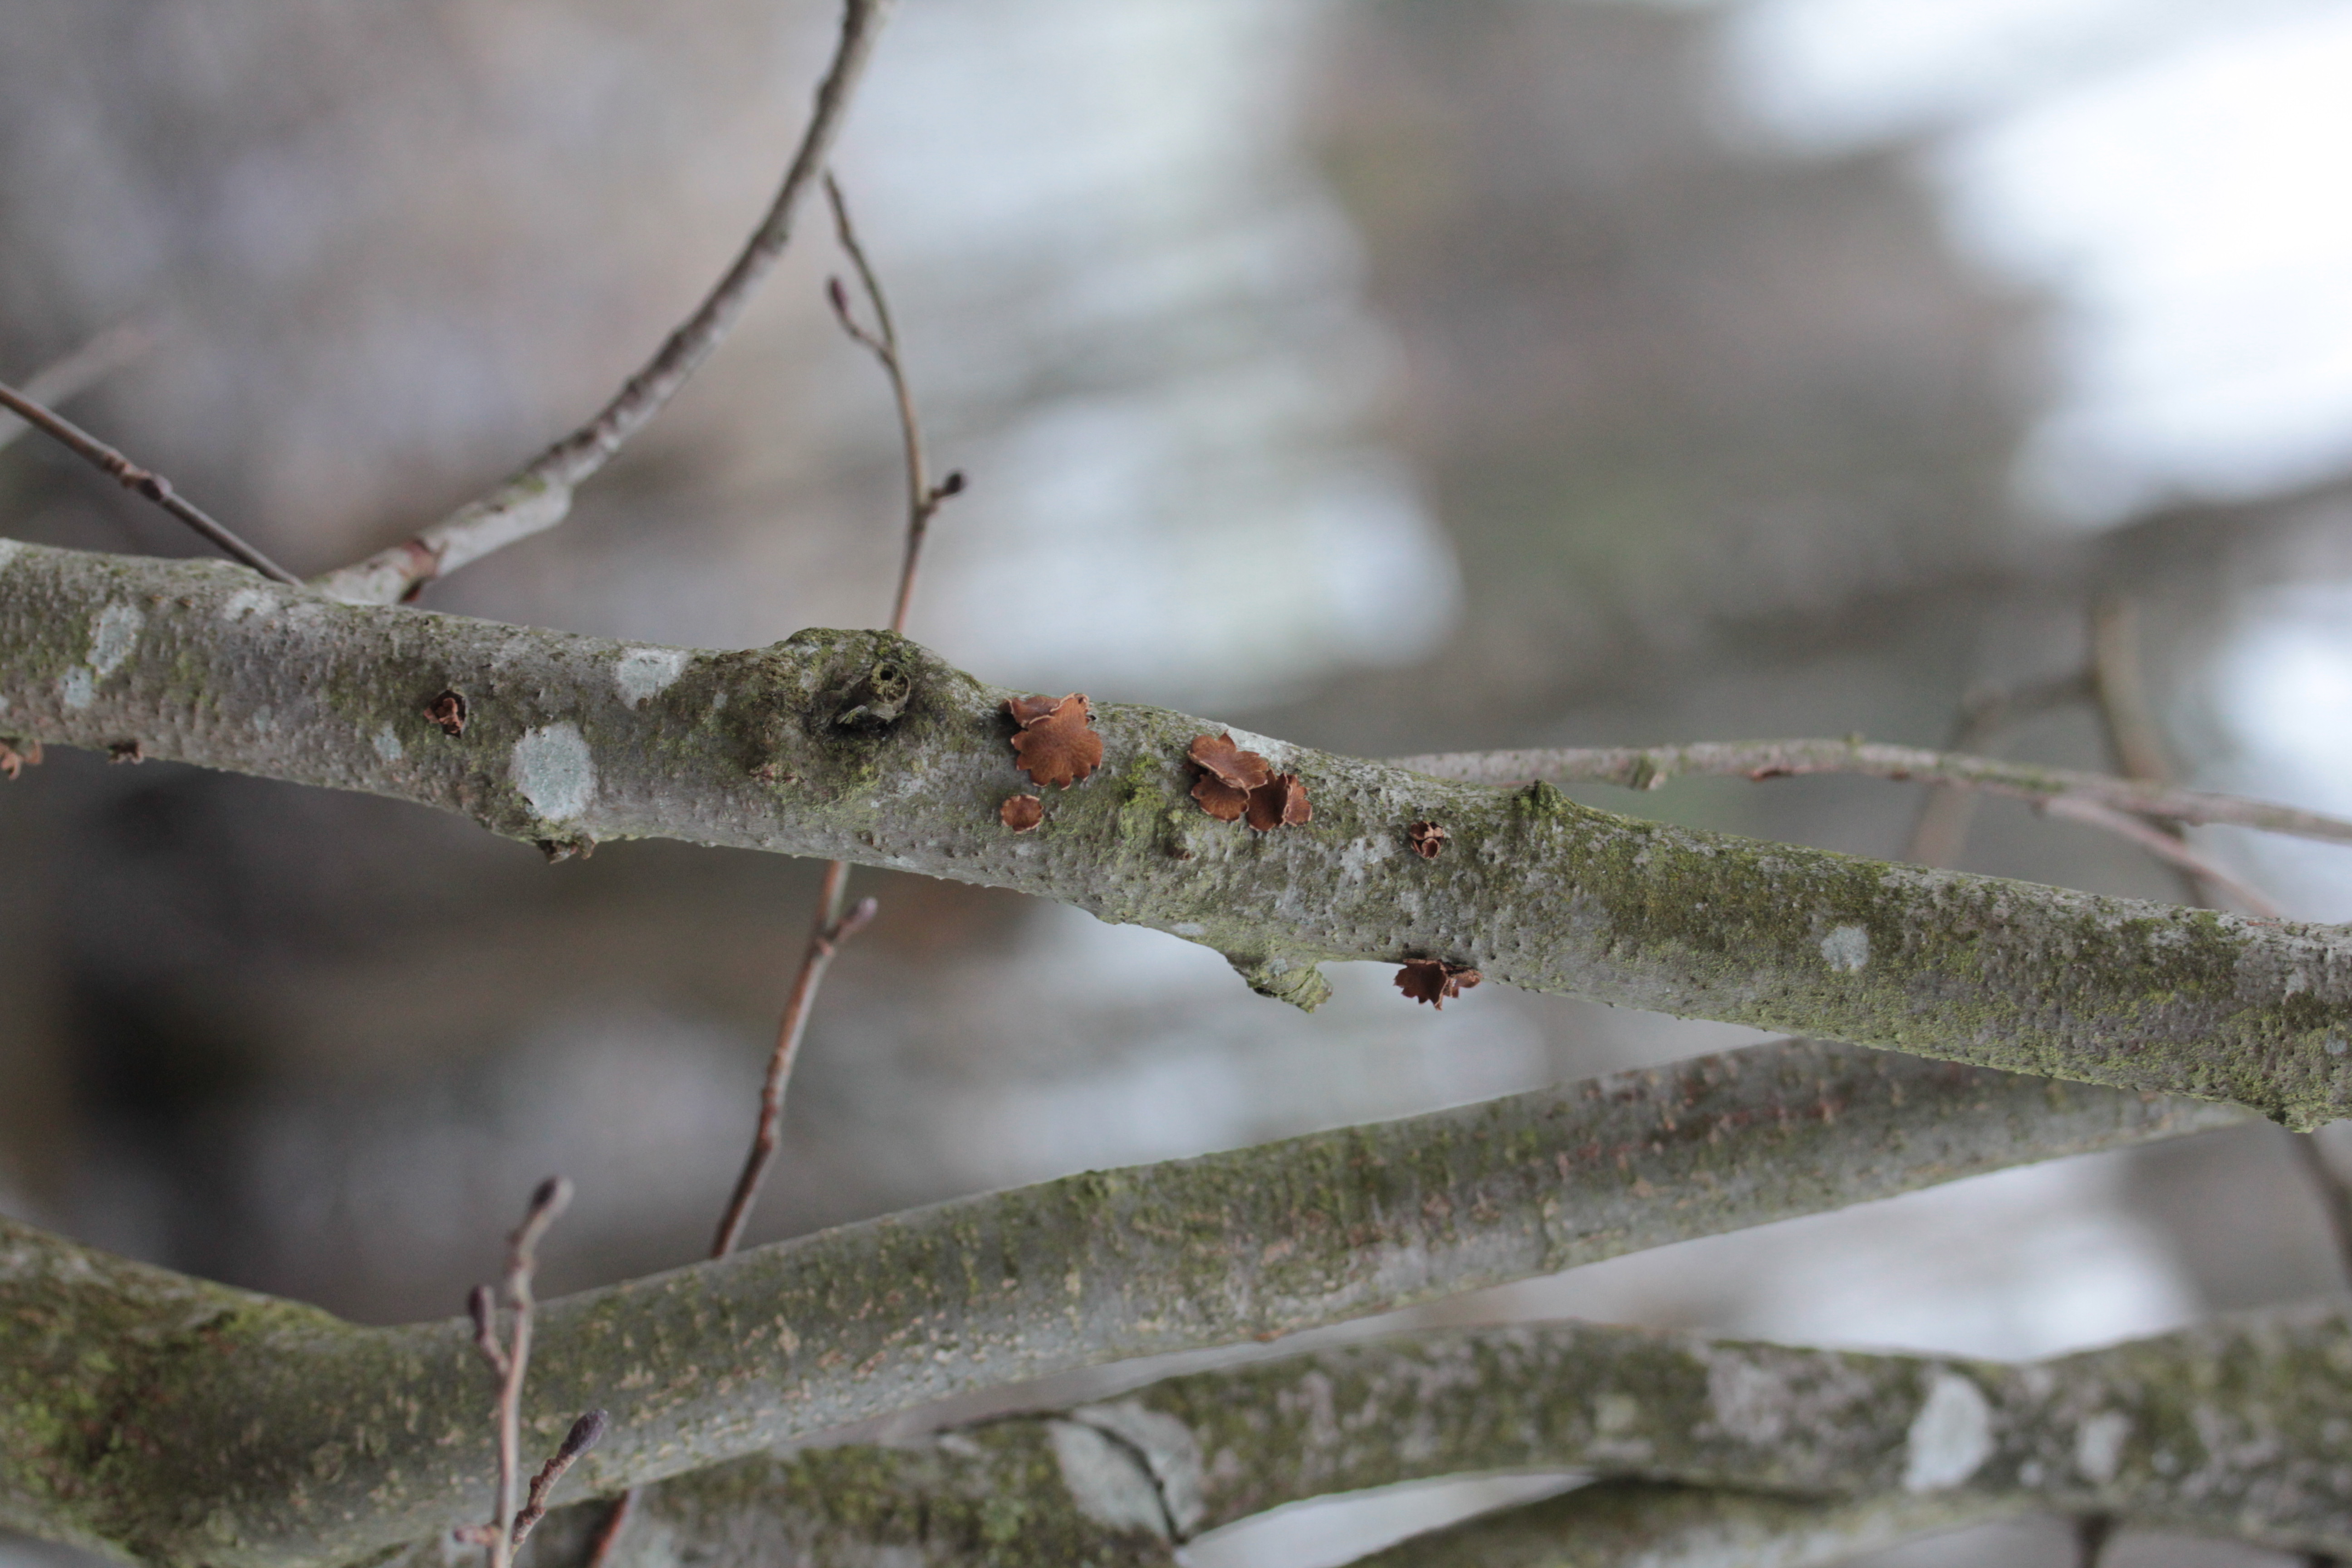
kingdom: Fungi
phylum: Ascomycota
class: Leotiomycetes
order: Helotiales
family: Cenangiaceae
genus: Encoelia
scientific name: Encoelia furfuracea
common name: Spring hazelcup
